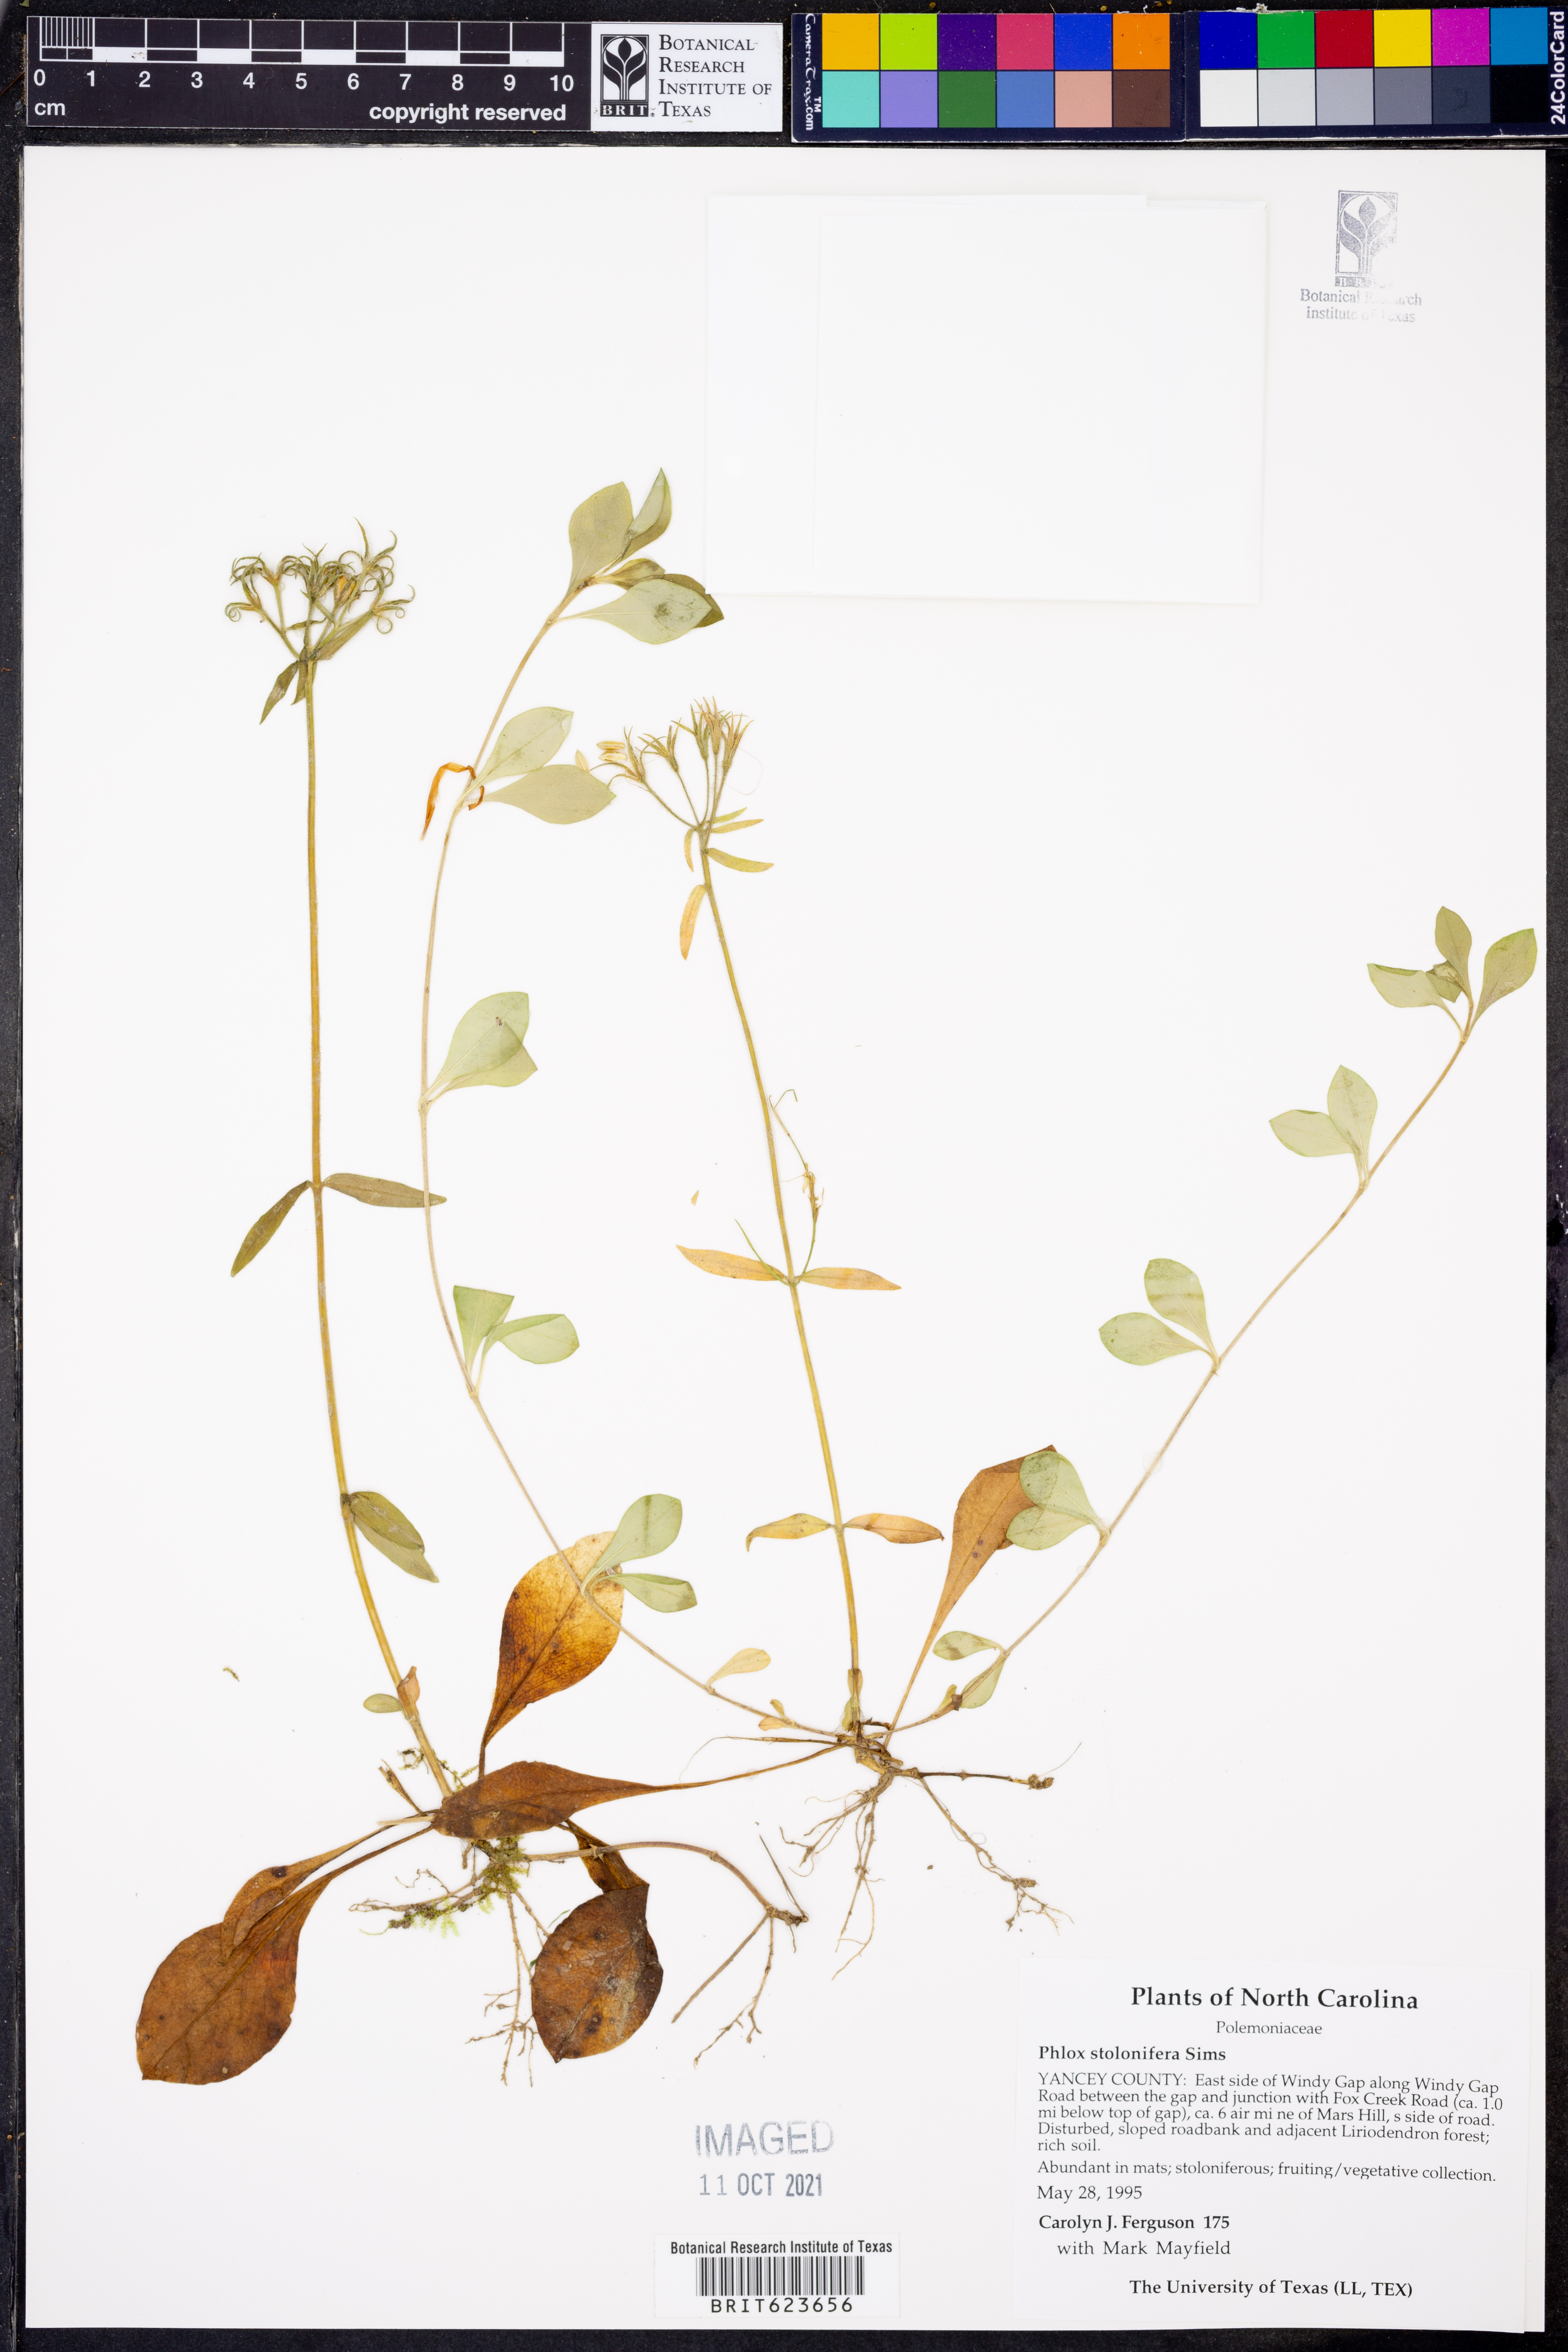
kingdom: Plantae
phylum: Tracheophyta
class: Magnoliopsida
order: Ericales
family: Polemoniaceae
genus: Phlox
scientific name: Phlox stolonifera
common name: Creeping phlox
